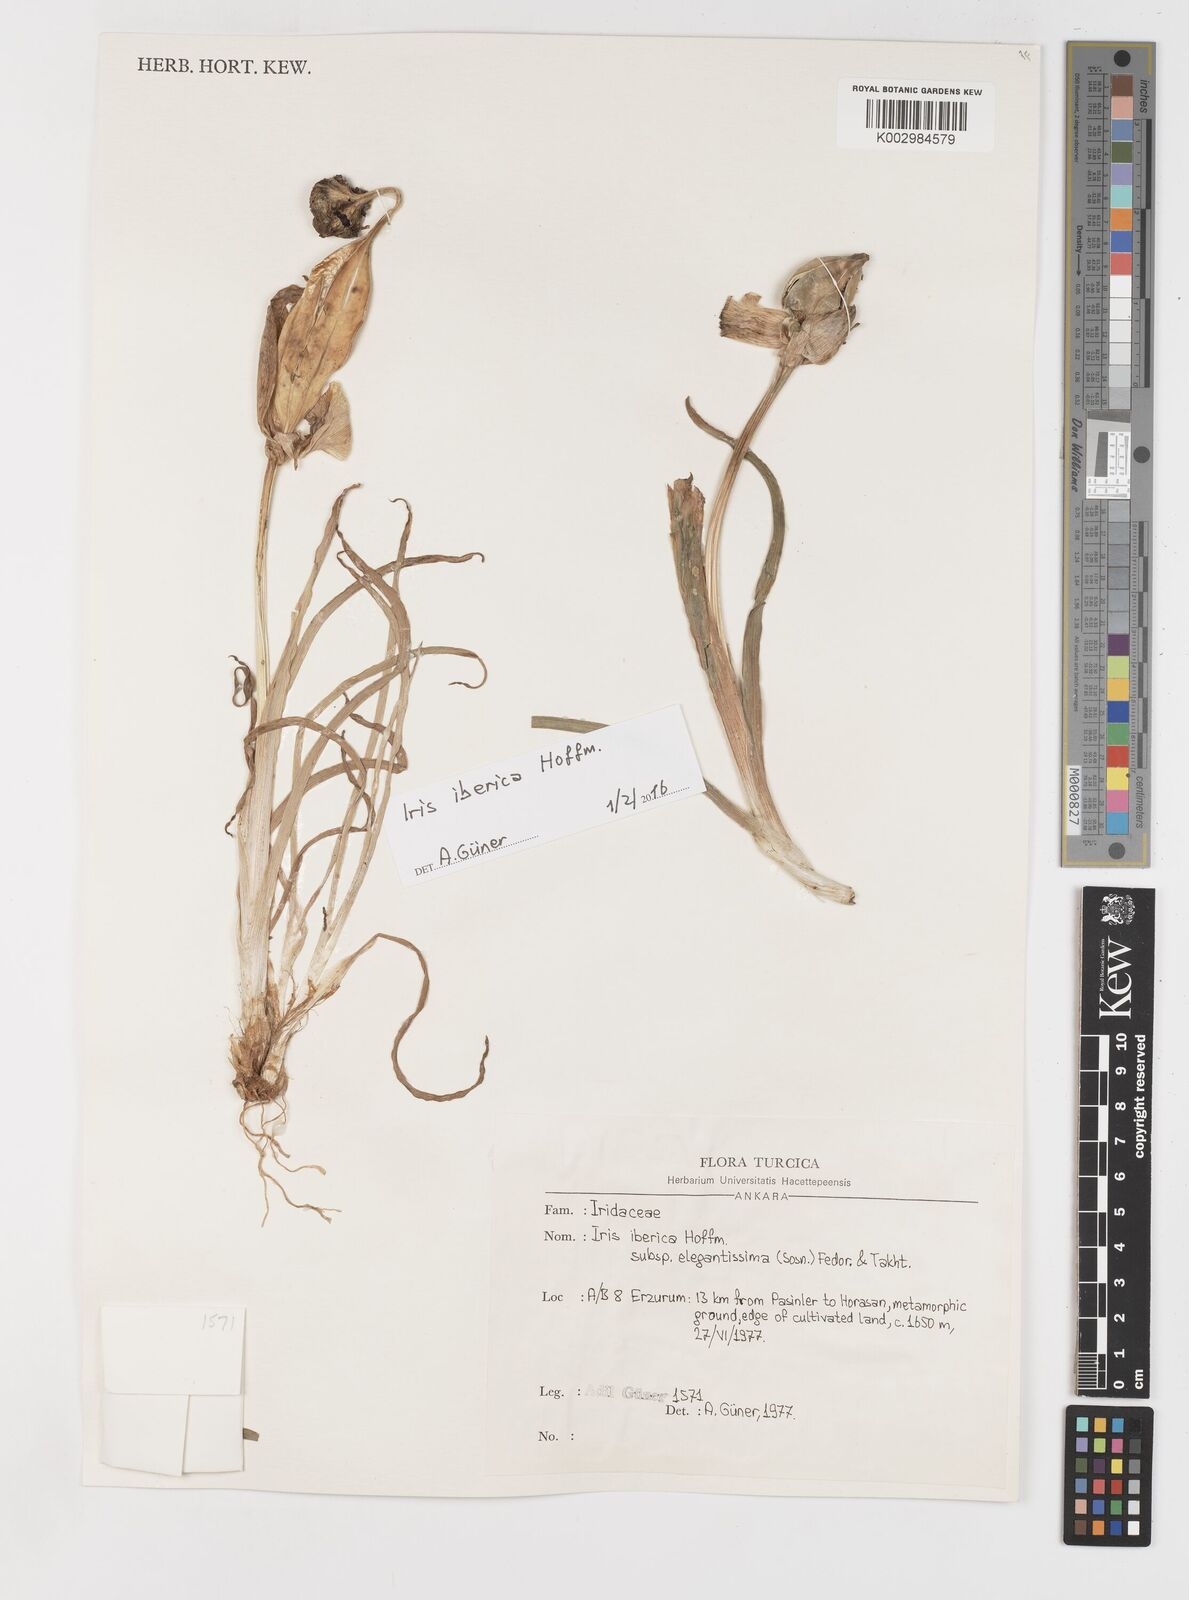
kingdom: Plantae
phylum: Tracheophyta
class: Liliopsida
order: Asparagales
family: Iridaceae
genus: Iris
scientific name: Iris iberica
